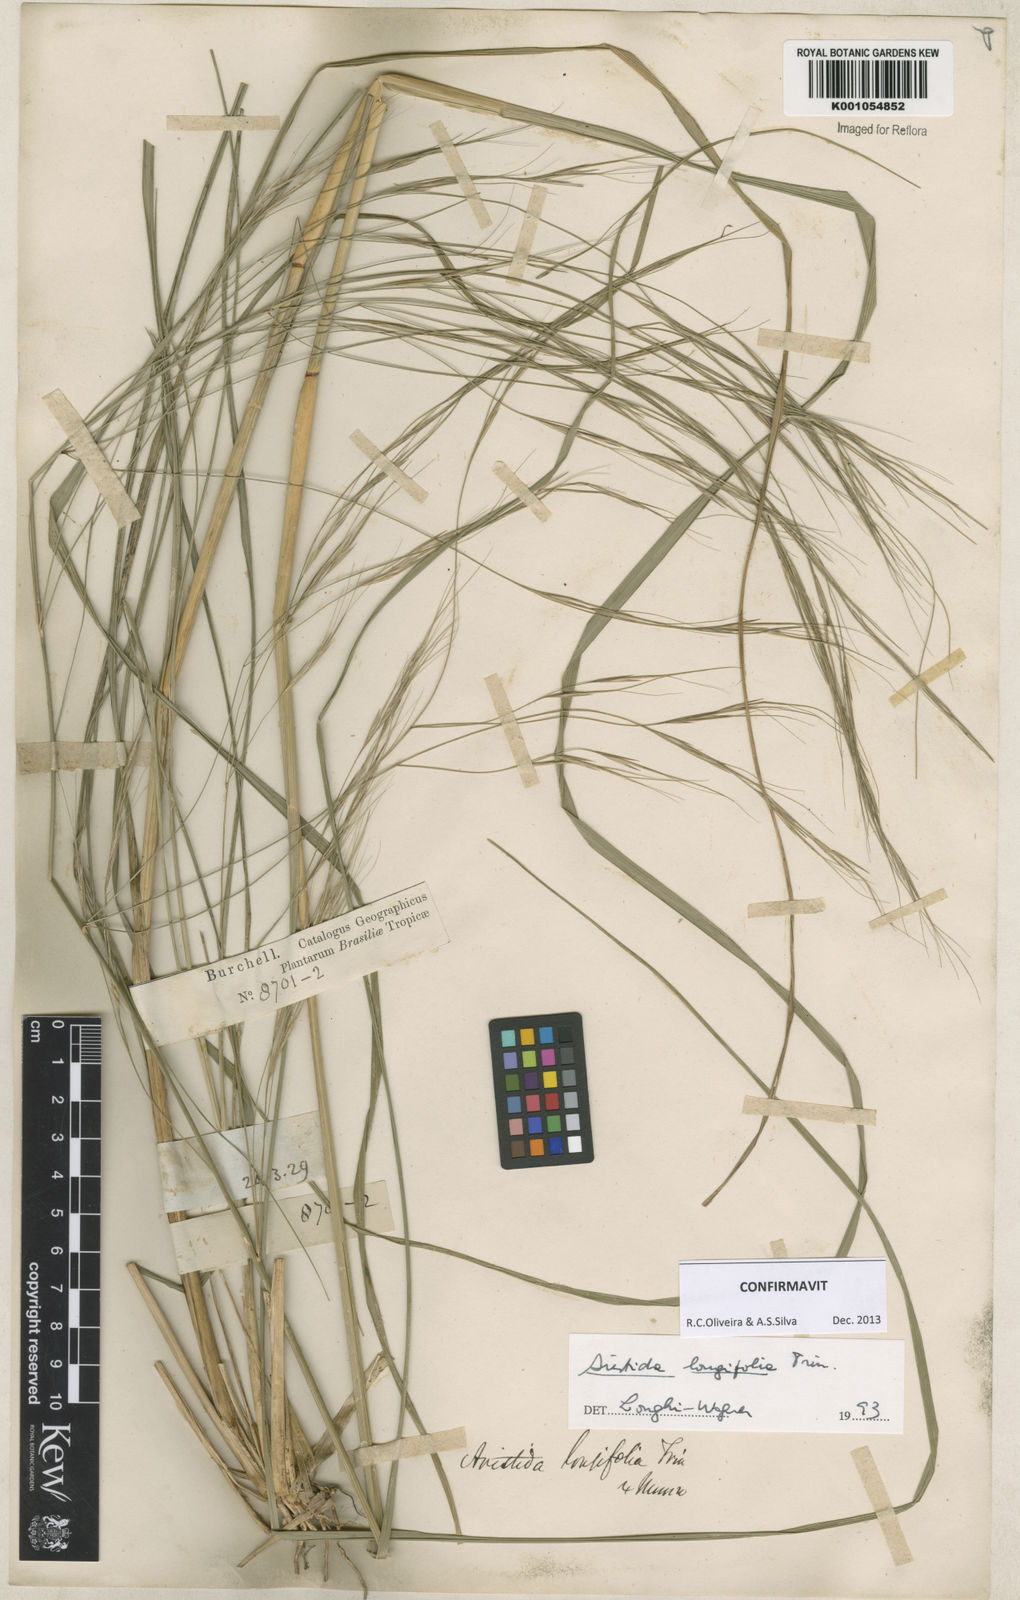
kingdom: Plantae
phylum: Tracheophyta
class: Liliopsida
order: Poales
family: Poaceae
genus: Aristida
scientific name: Aristida longifolia
